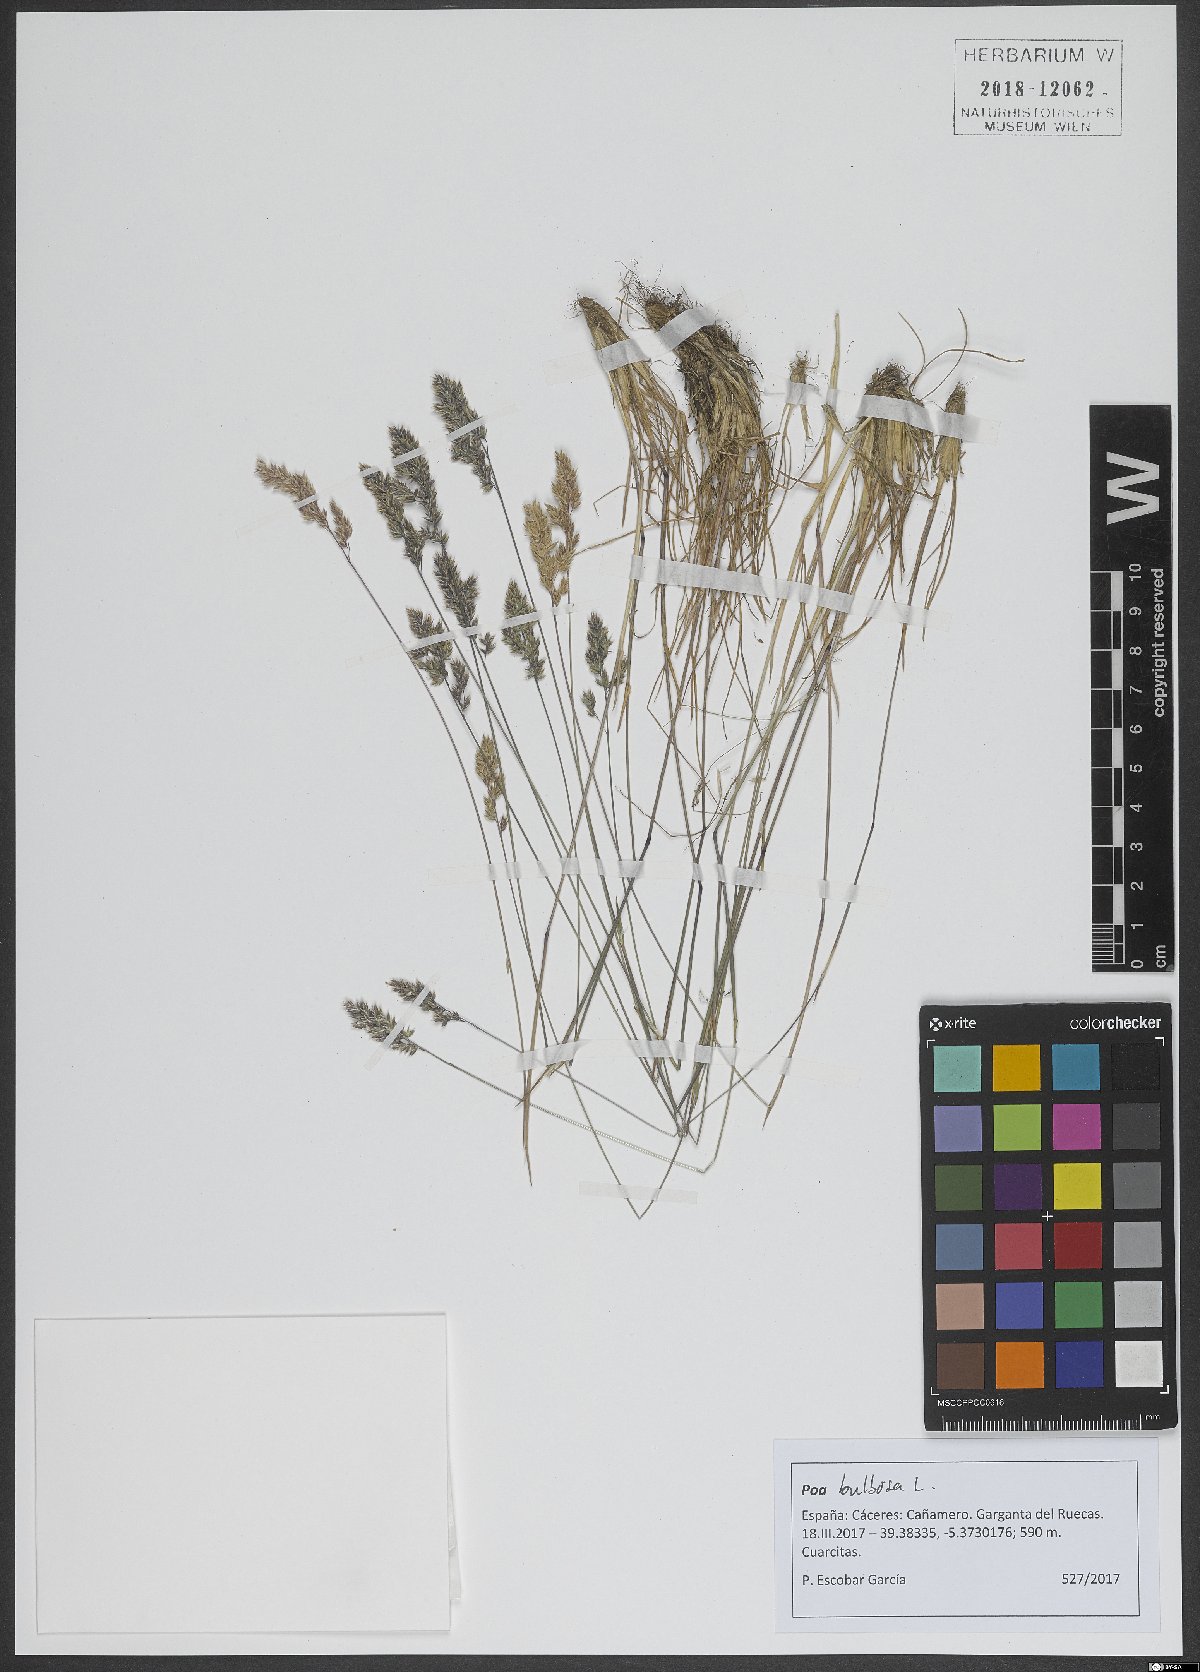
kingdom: Plantae
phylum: Tracheophyta
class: Liliopsida
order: Poales
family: Poaceae
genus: Poa
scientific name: Poa bulbosa
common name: Bulbous bluegrass
